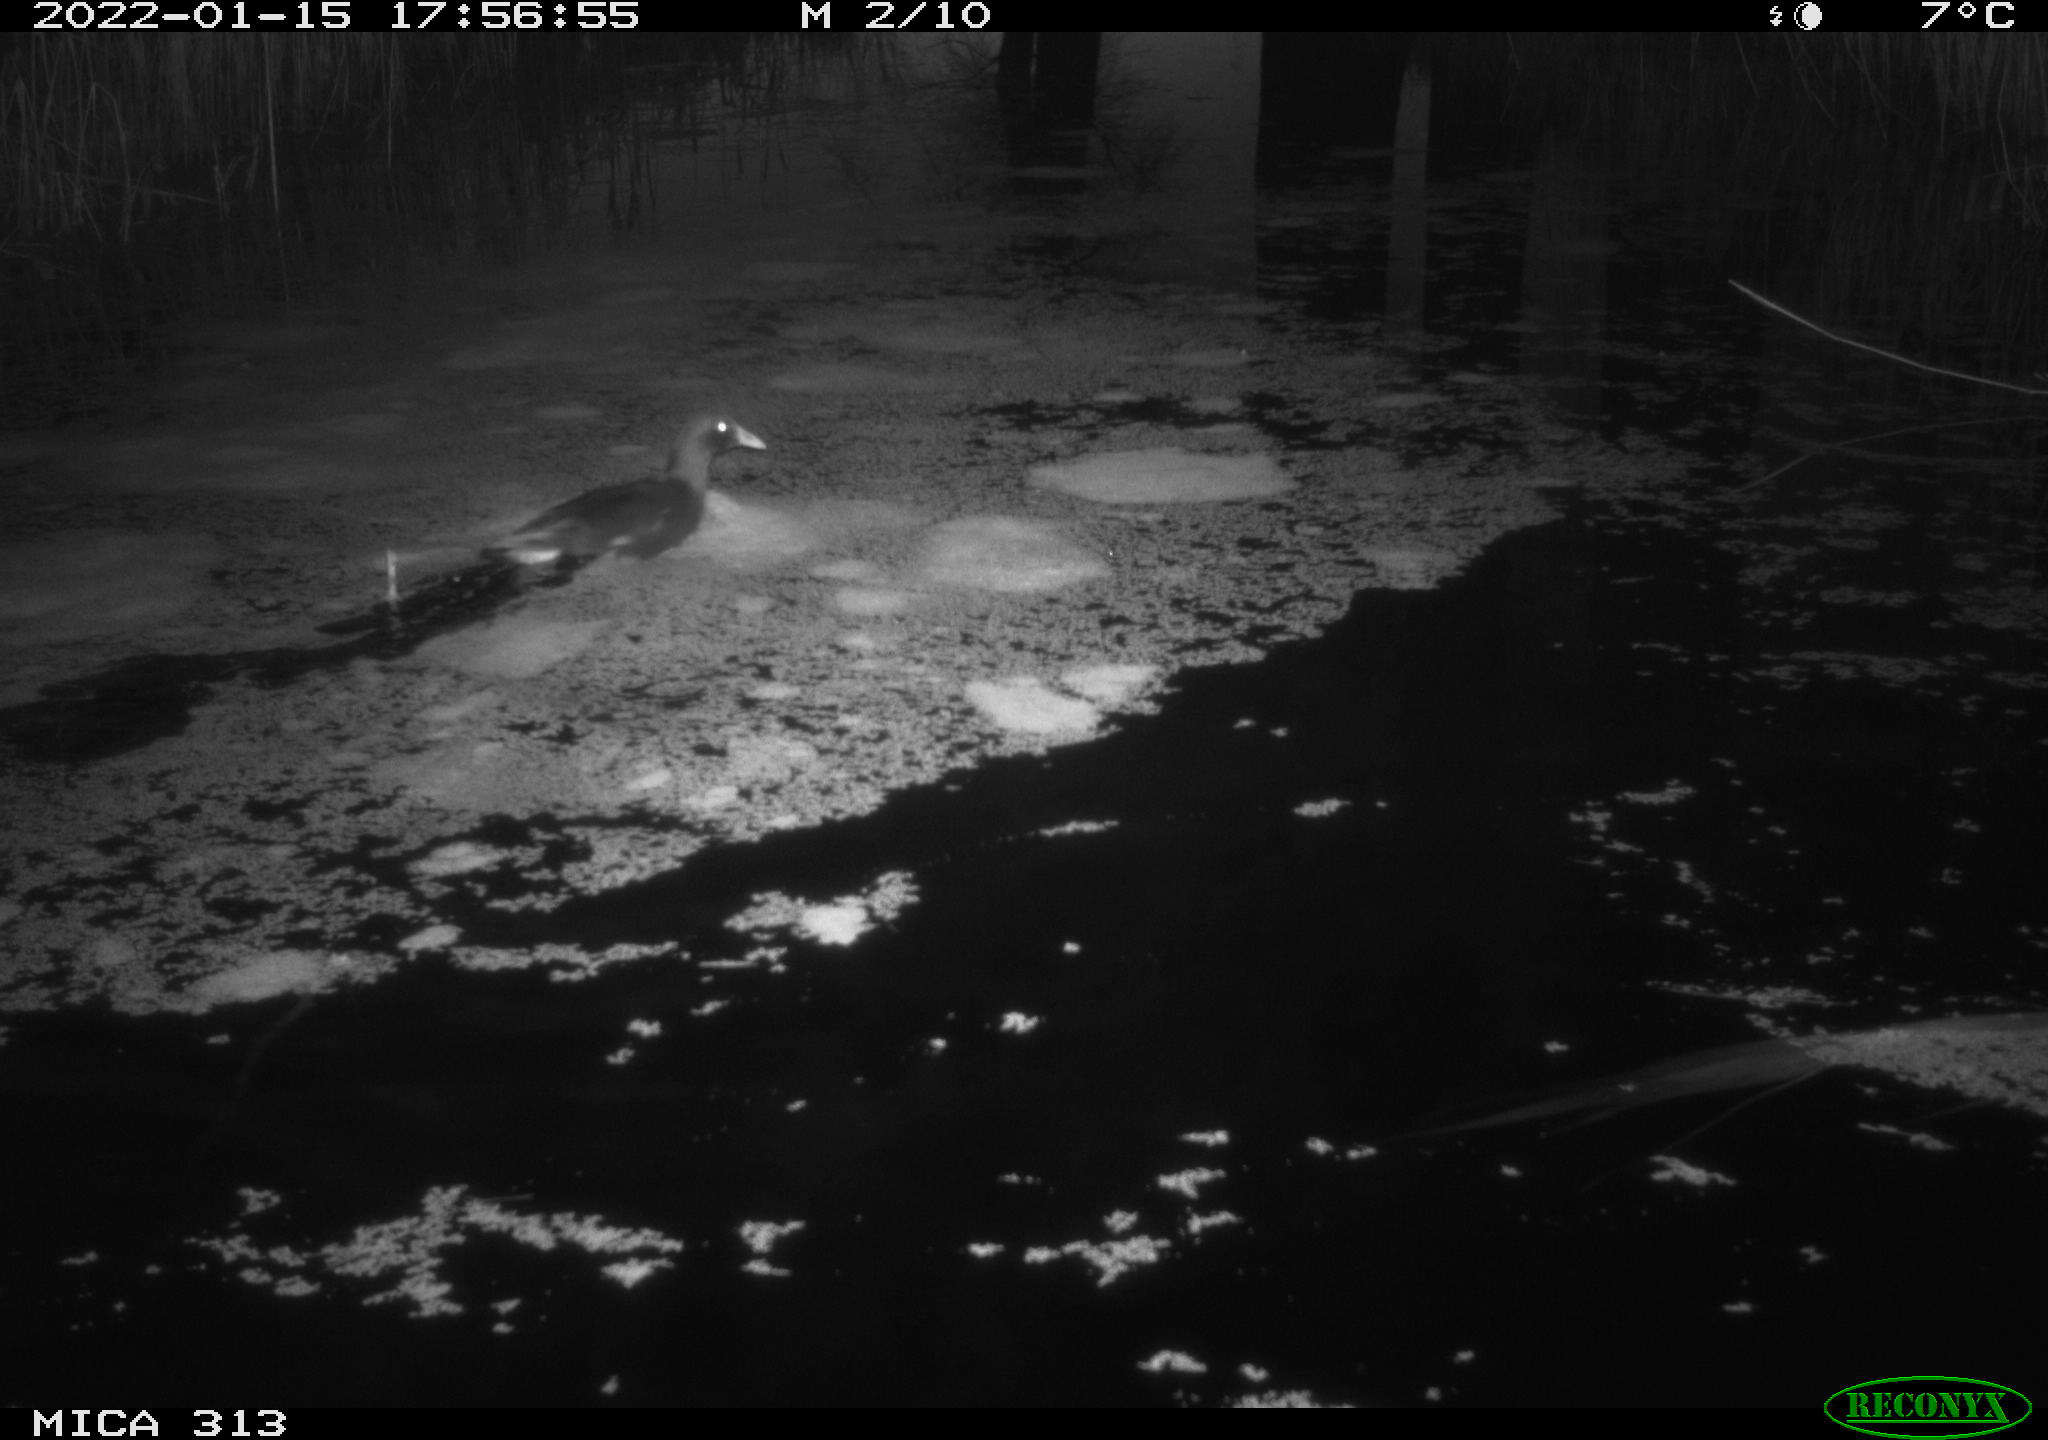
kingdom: Animalia
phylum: Chordata
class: Aves
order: Anseriformes
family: Anatidae
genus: Anas
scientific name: Anas
